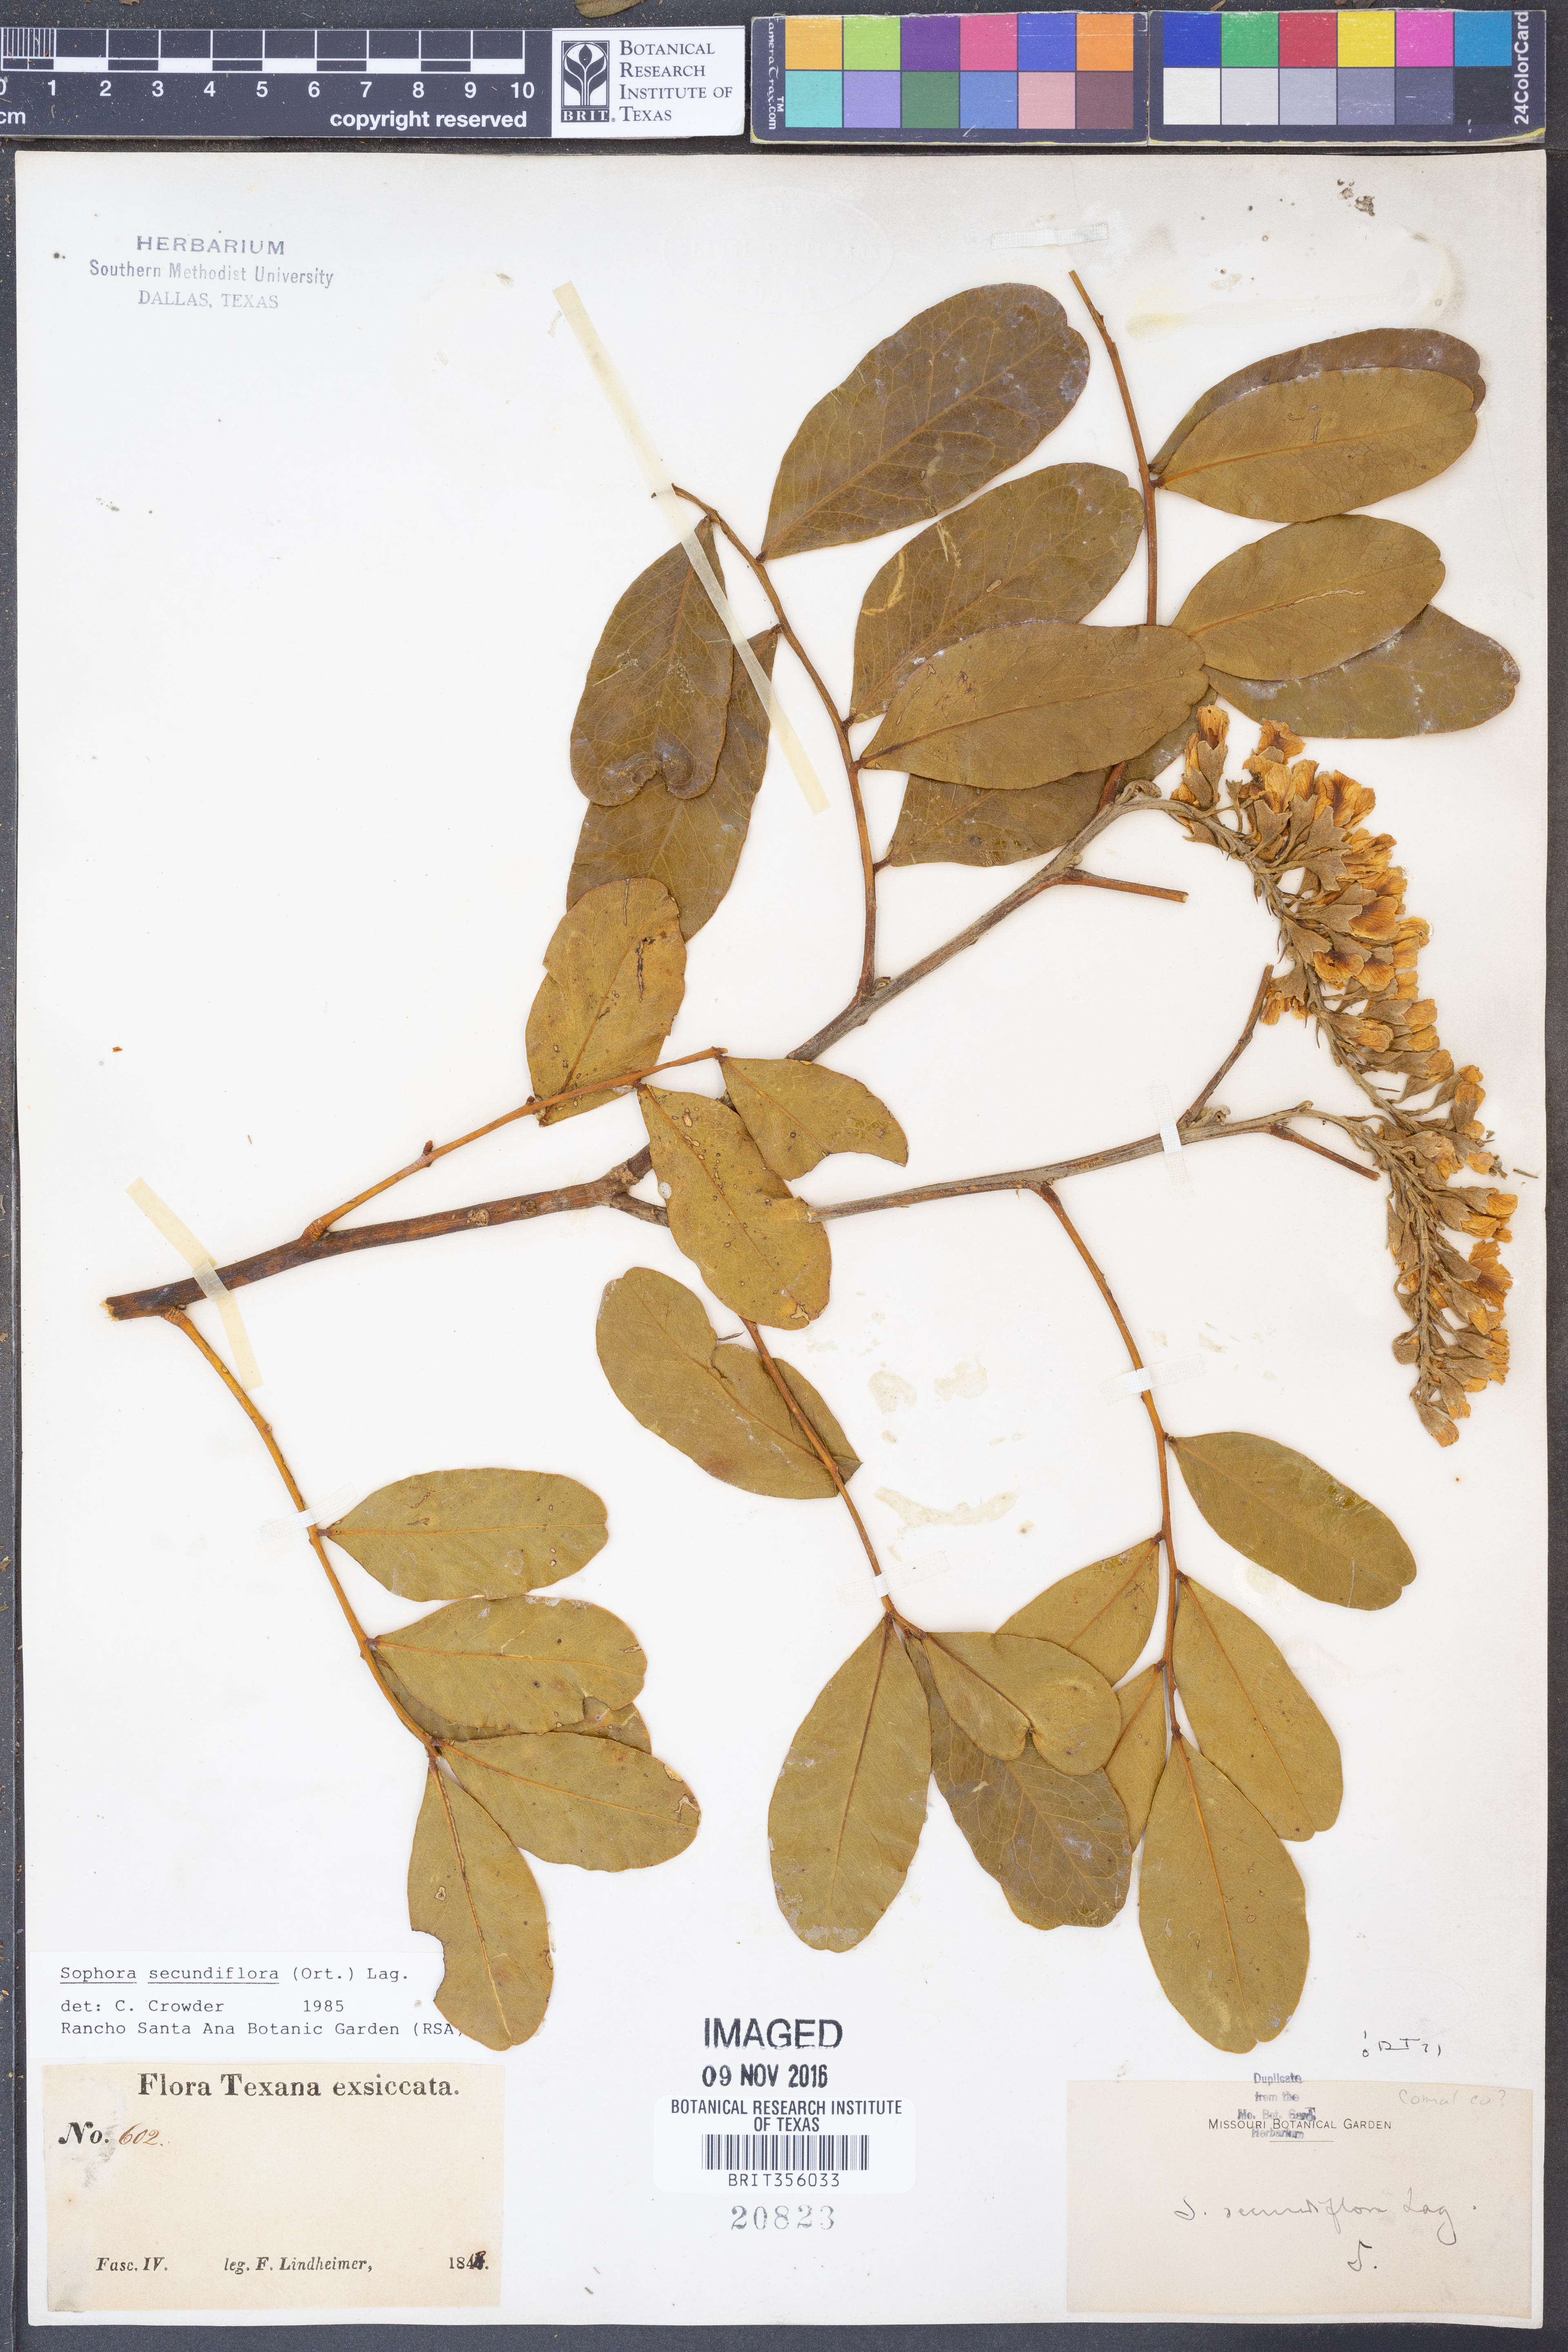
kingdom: Plantae
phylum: Tracheophyta
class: Magnoliopsida
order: Fabales
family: Fabaceae
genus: Dermatophyllum
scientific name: Dermatophyllum secundiflorum
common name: Texas-mountain-laurel
